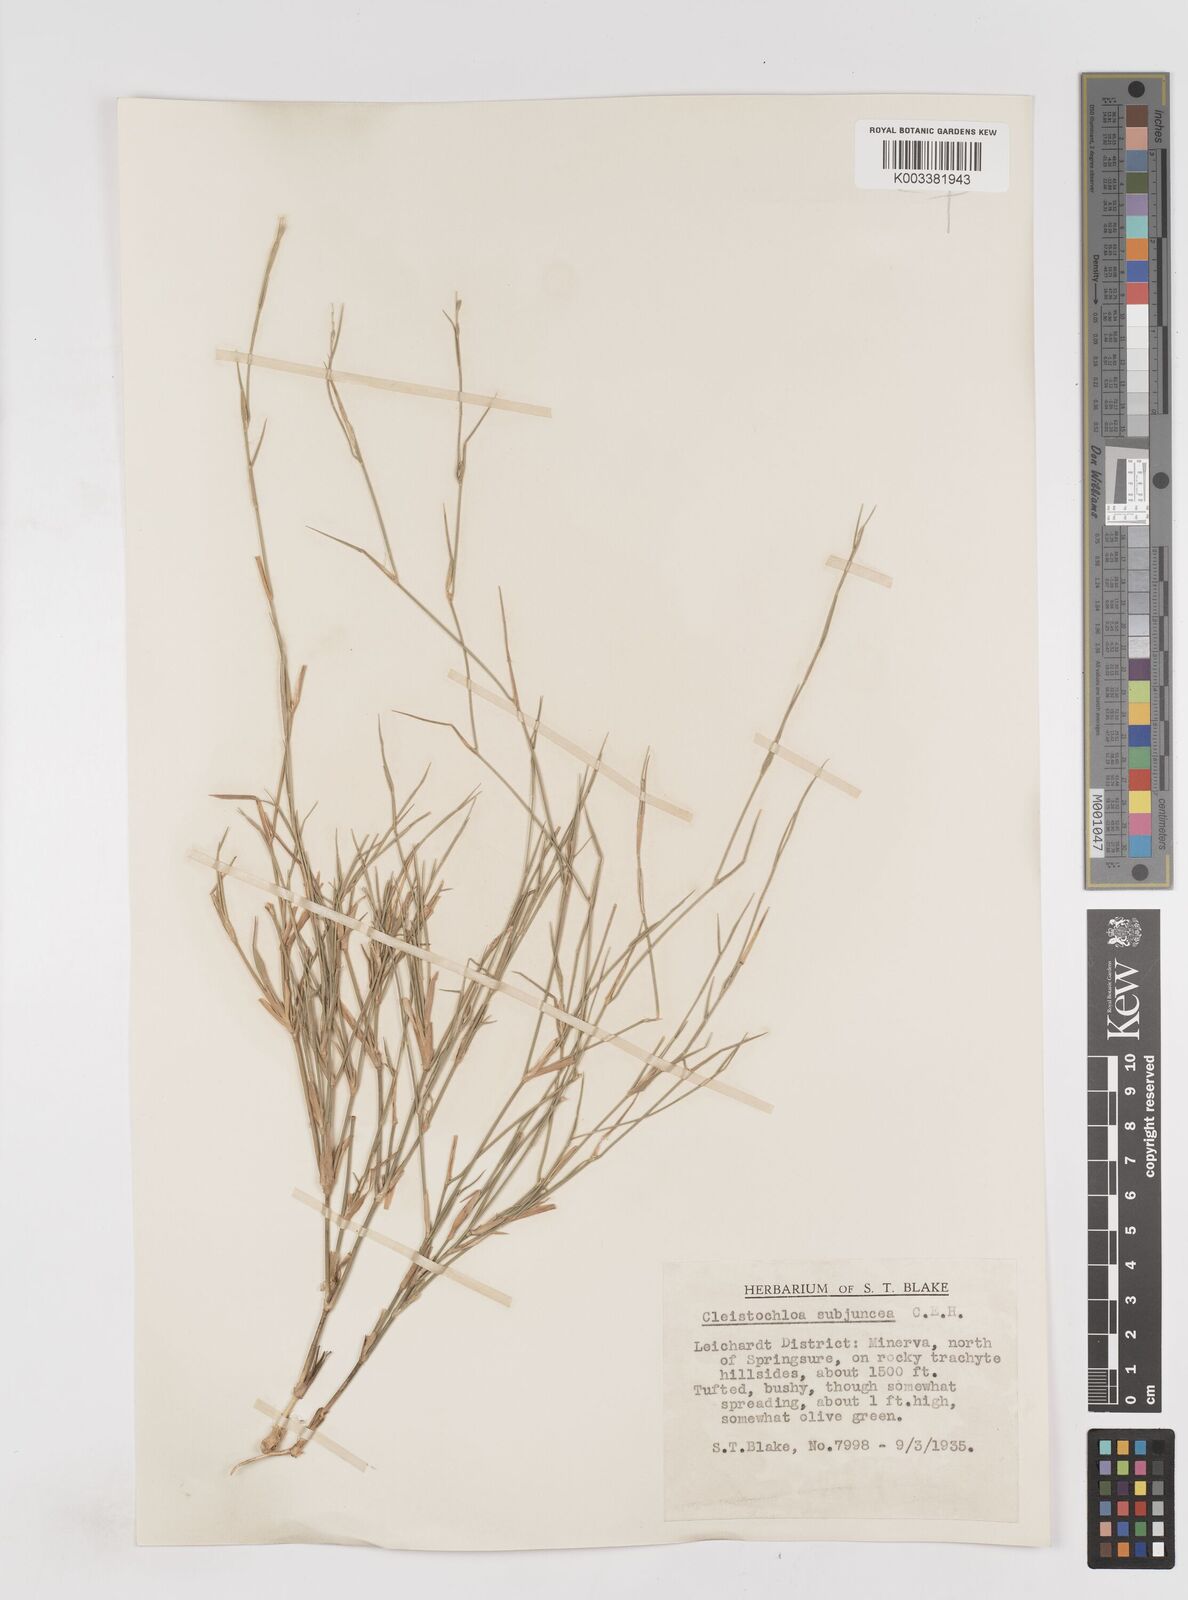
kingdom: Plantae
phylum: Tracheophyta
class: Liliopsida
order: Poales
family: Poaceae
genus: Cleistochloa
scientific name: Cleistochloa subjuncea
